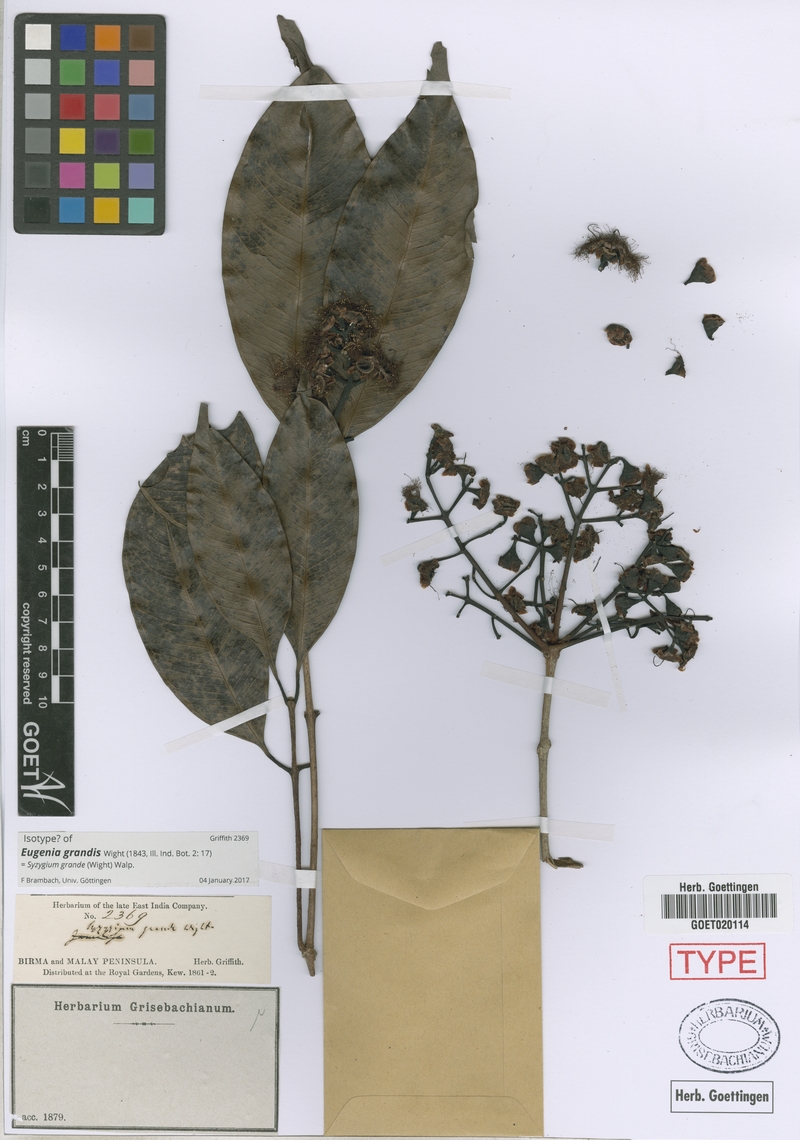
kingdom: Plantae
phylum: Tracheophyta
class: Magnoliopsida
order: Myrtales
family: Myrtaceae
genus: Syzygium
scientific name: Syzygium grande
